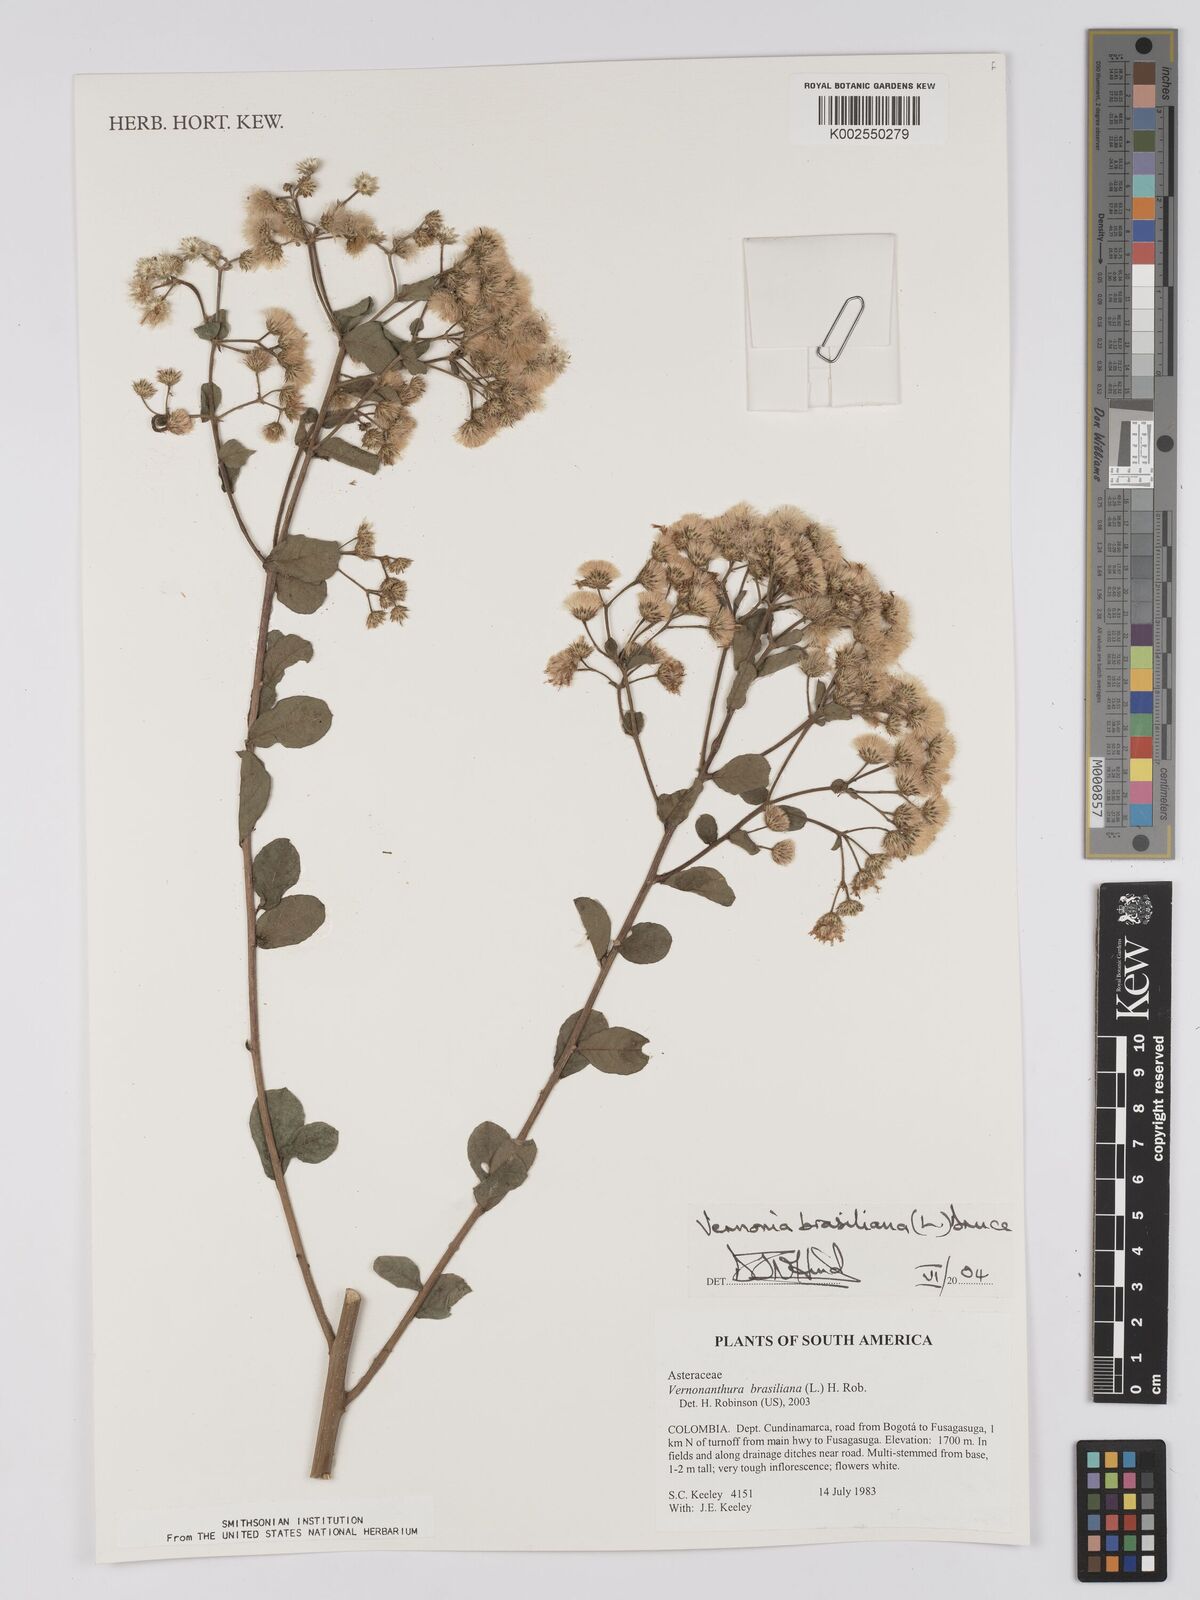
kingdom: Plantae
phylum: Tracheophyta
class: Magnoliopsida
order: Asterales
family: Asteraceae
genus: Vernonanthura
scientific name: Vernonanthura brasiliana
